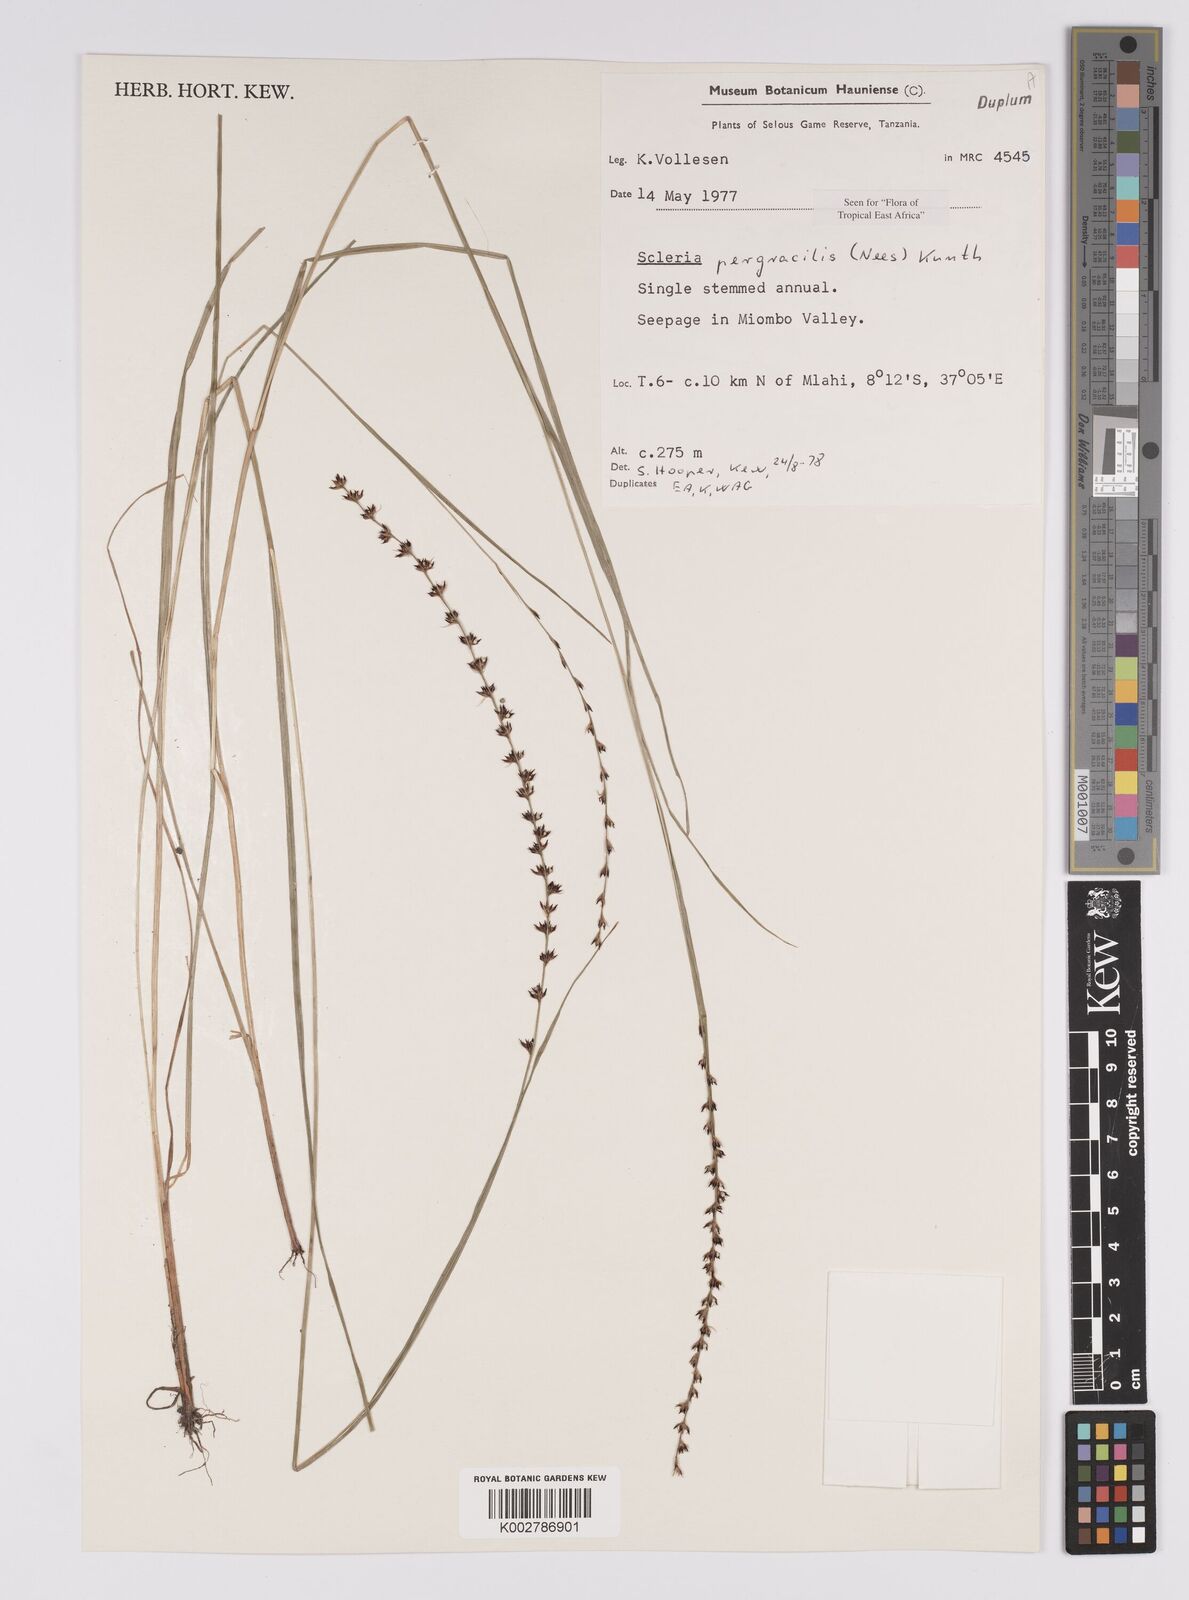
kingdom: Plantae
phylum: Tracheophyta
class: Liliopsida
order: Poales
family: Cyperaceae
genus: Scleria
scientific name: Scleria pergracilis
